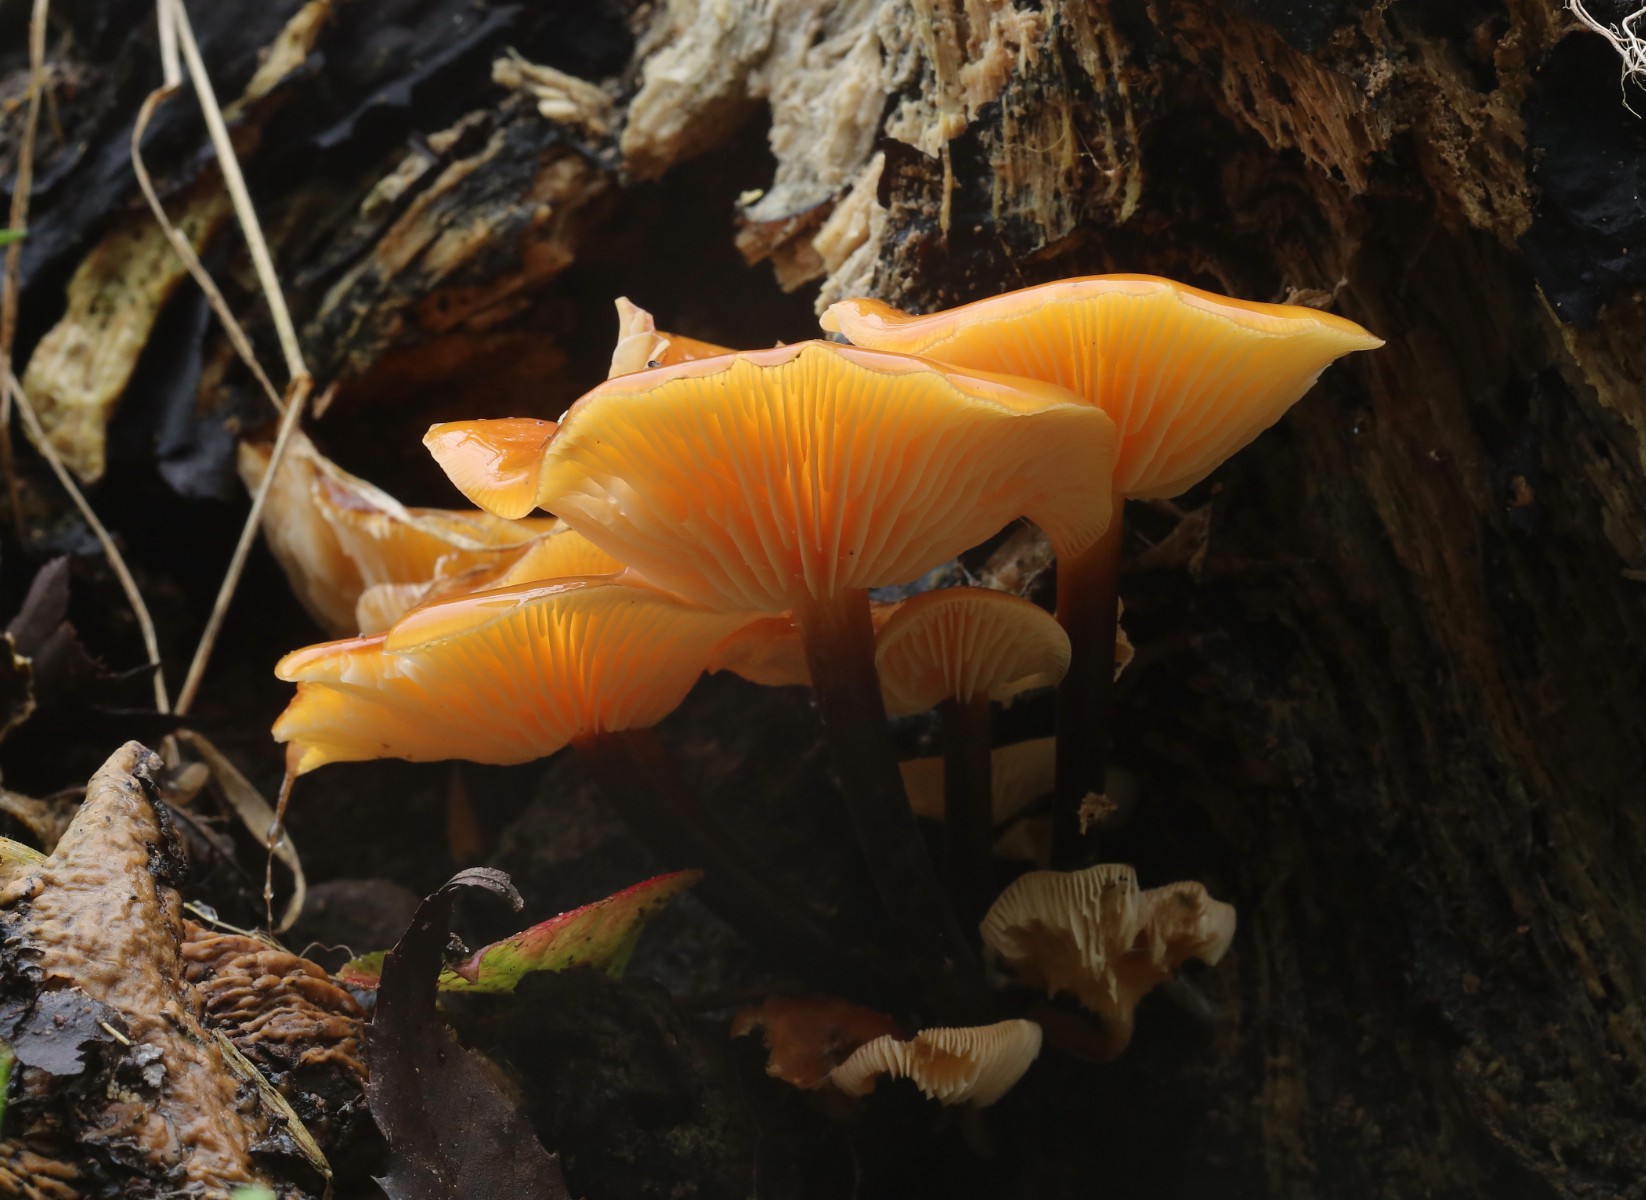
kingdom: Fungi
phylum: Basidiomycota
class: Agaricomycetes
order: Agaricales
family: Physalacriaceae
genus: Flammulina
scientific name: Flammulina
